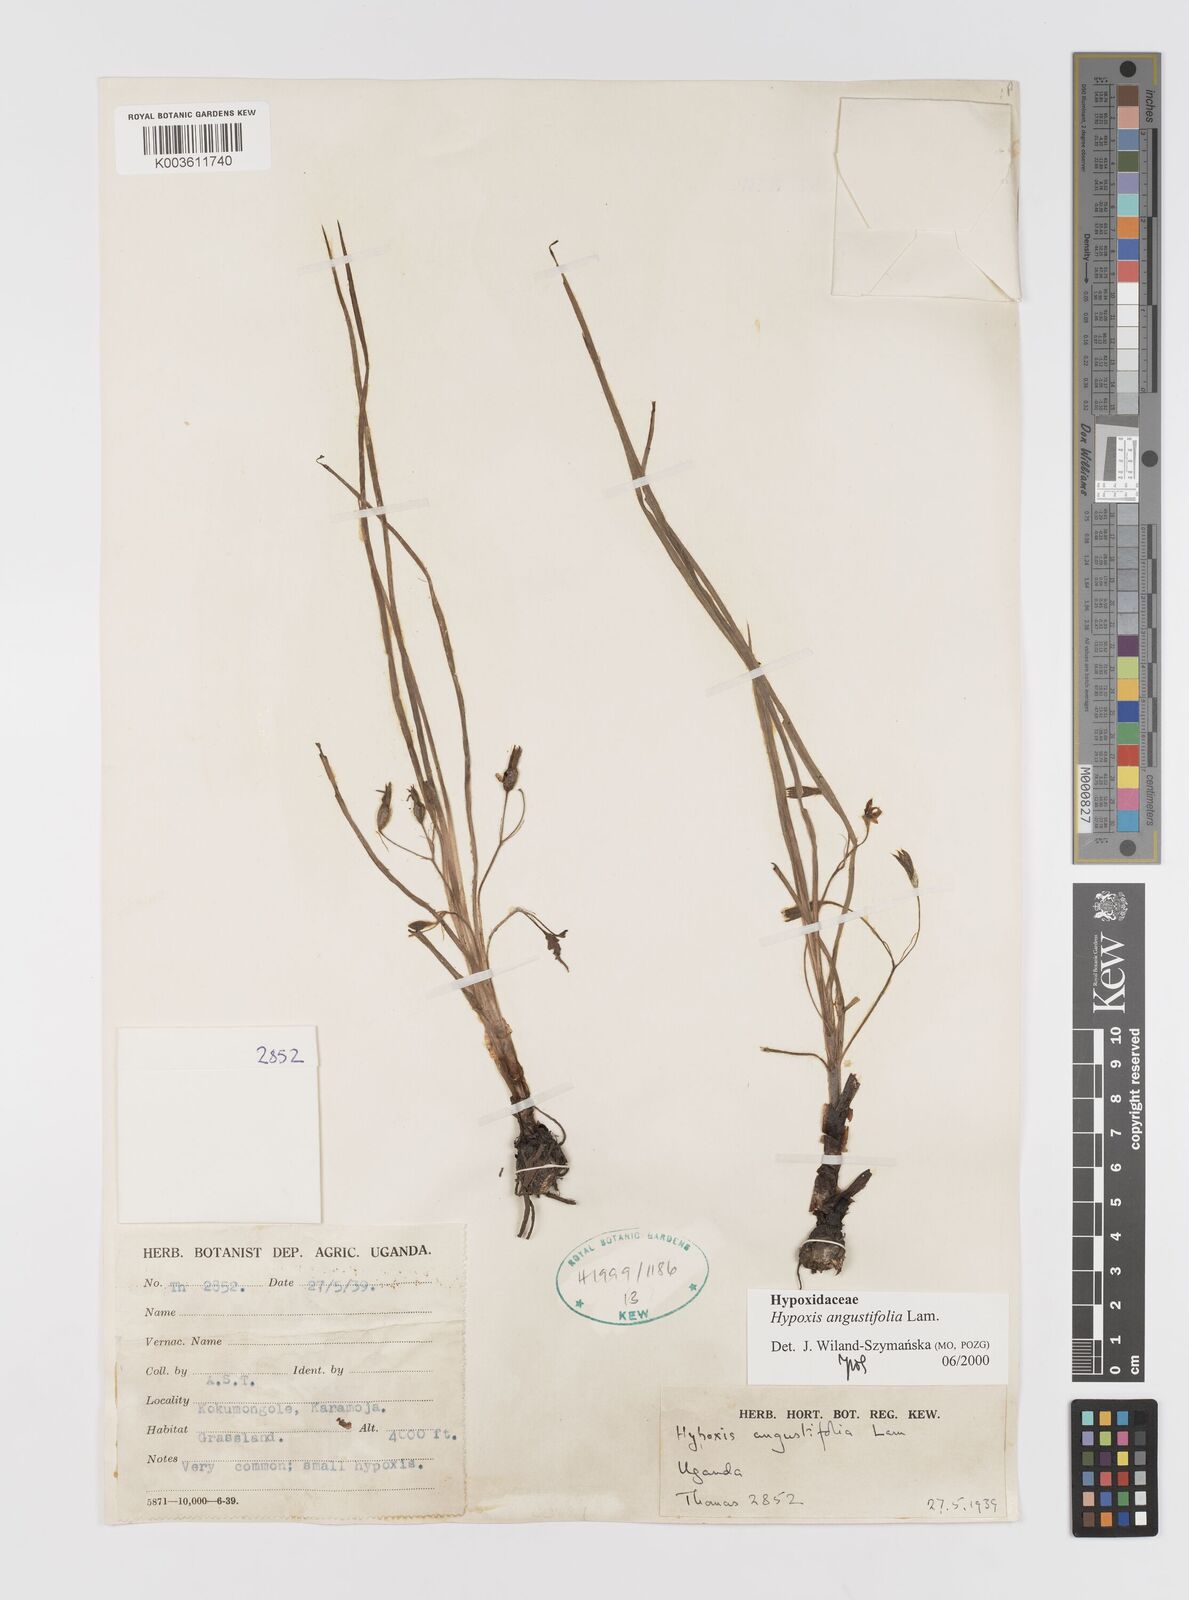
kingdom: Plantae
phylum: Tracheophyta
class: Liliopsida
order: Asparagales
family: Hypoxidaceae
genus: Hypoxis
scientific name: Hypoxis angustifolia
